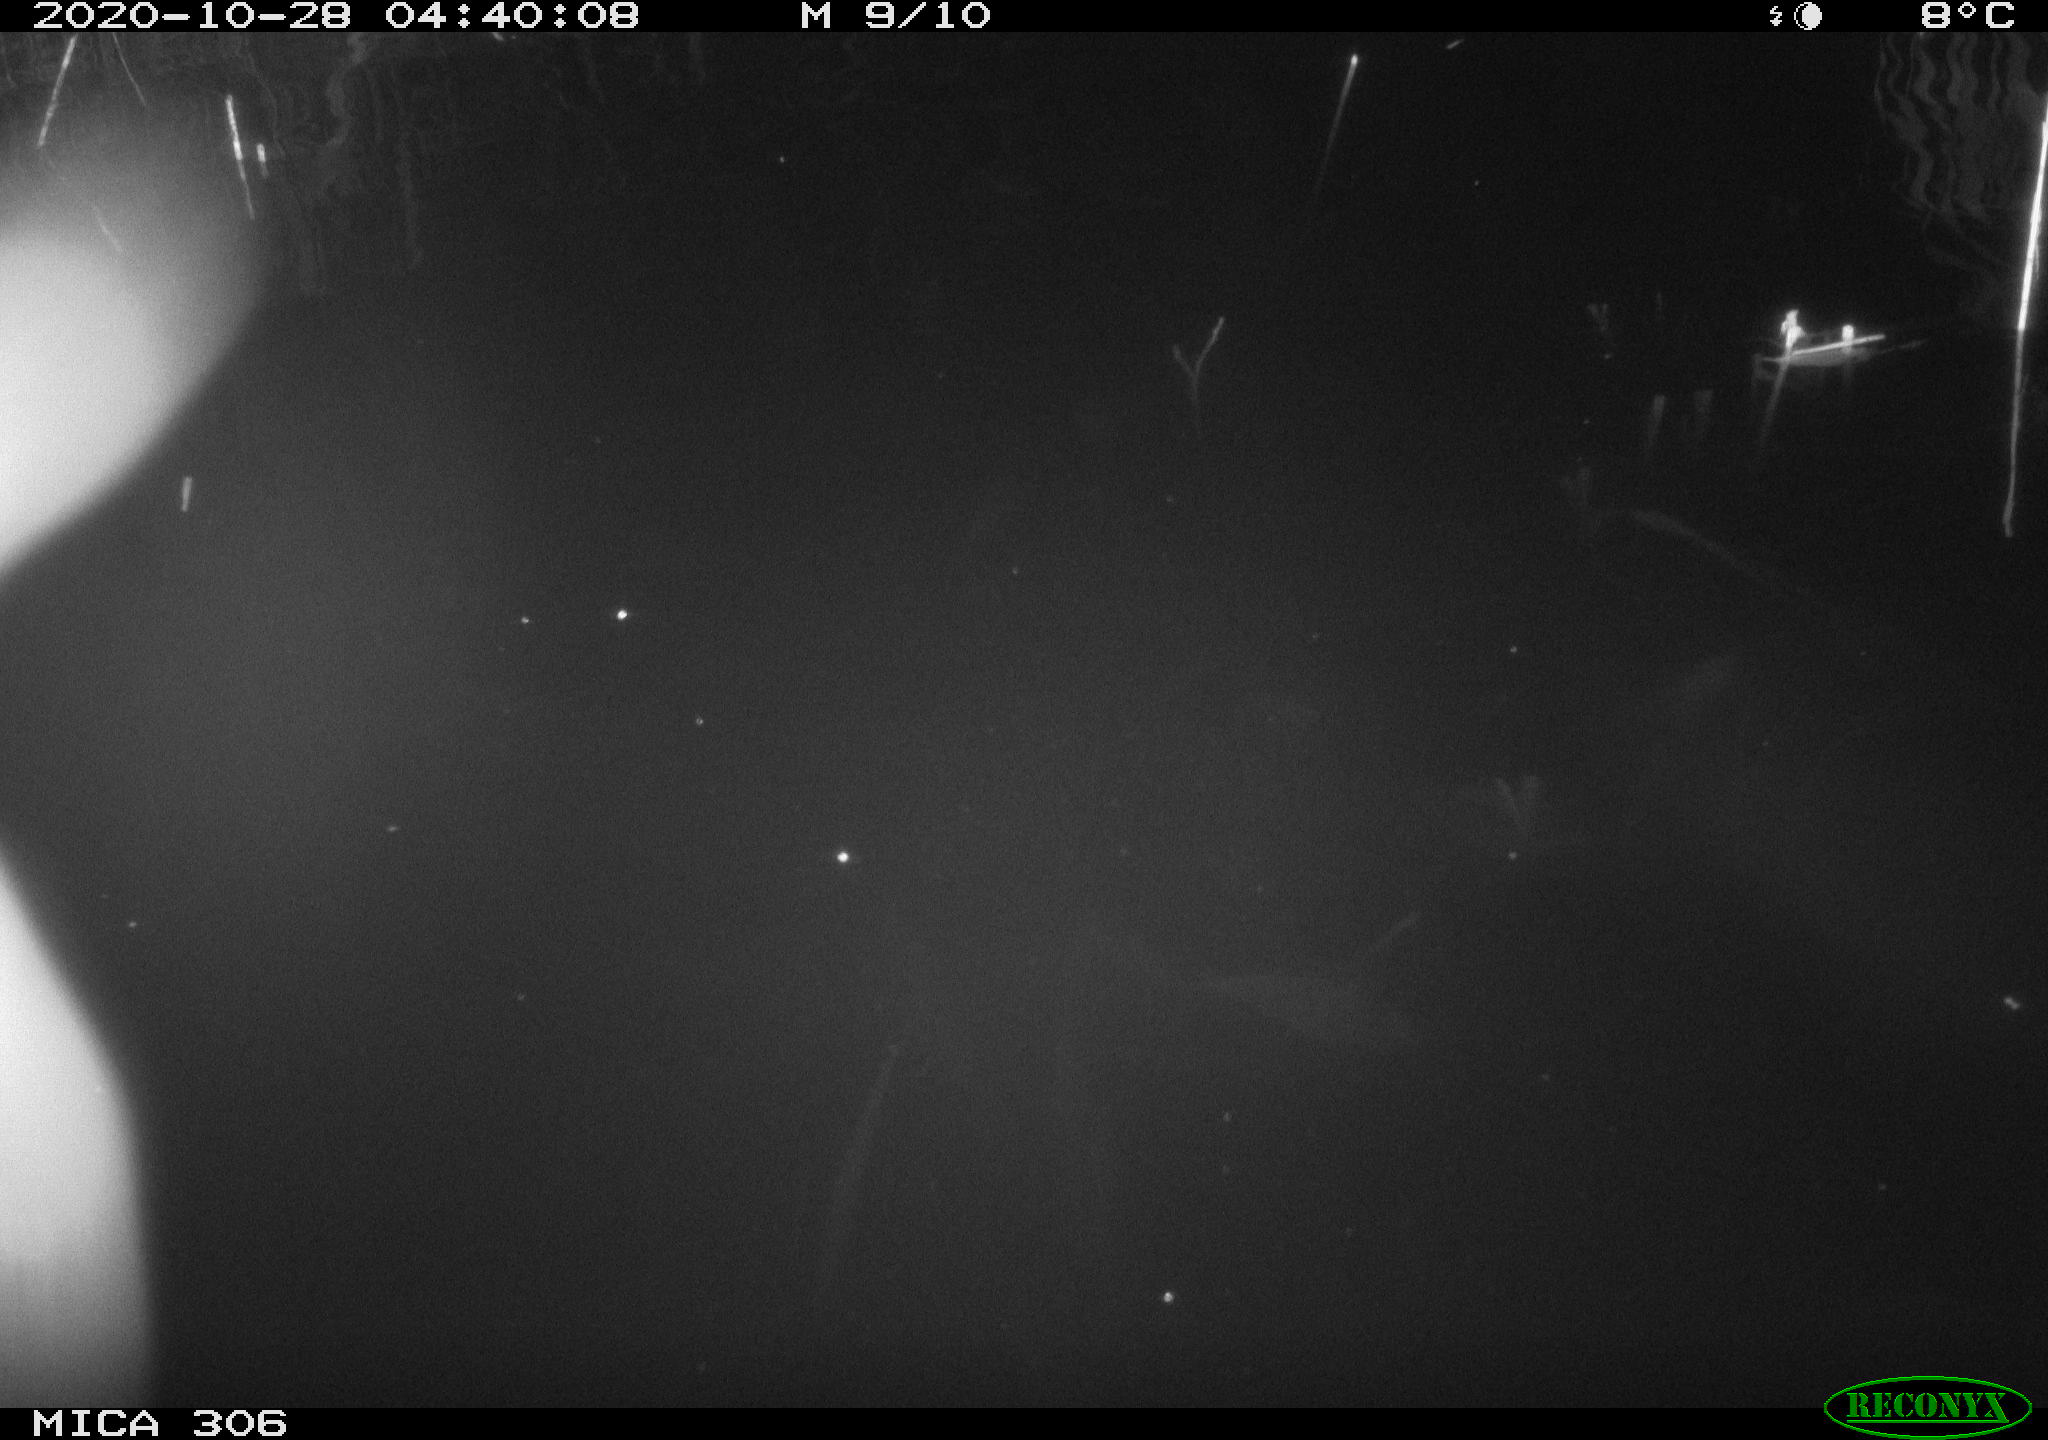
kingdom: Animalia
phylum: Chordata
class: Mammalia
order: Rodentia
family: Cricetidae
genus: Ondatra
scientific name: Ondatra zibethicus
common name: Muskrat
